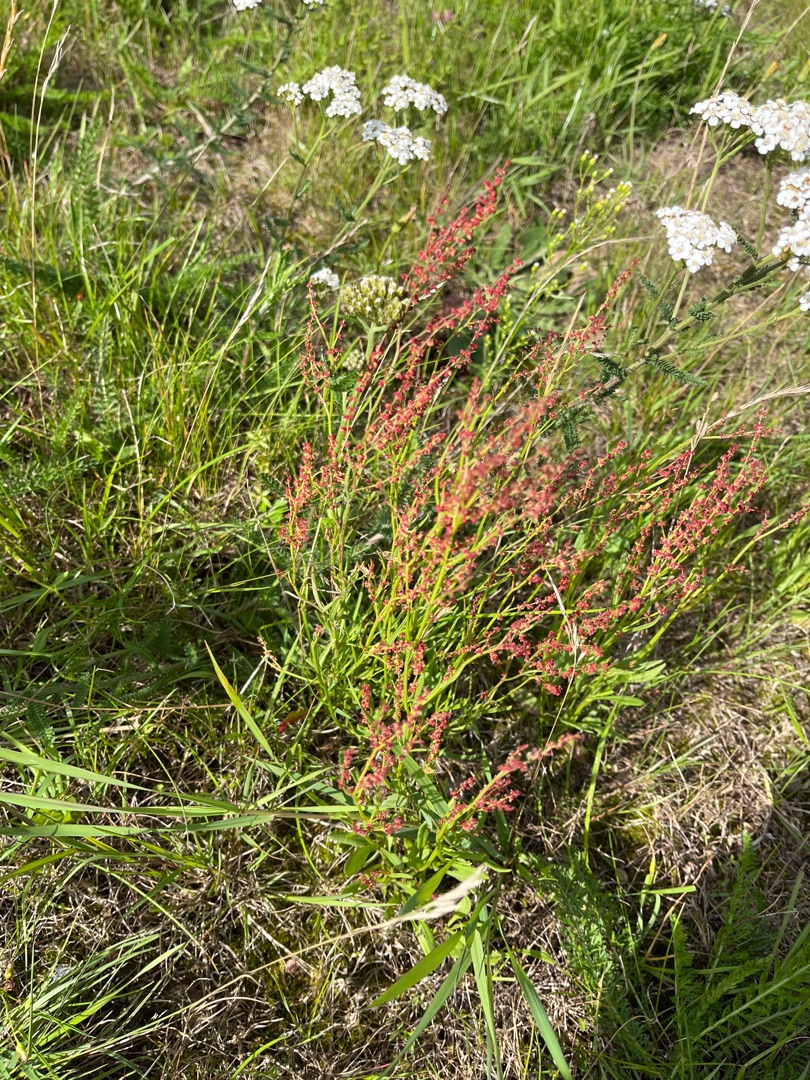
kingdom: Plantae
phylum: Tracheophyta
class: Magnoliopsida
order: Caryophyllales
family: Polygonaceae
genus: Rumex
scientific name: Rumex acetosella
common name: Rødknæ
